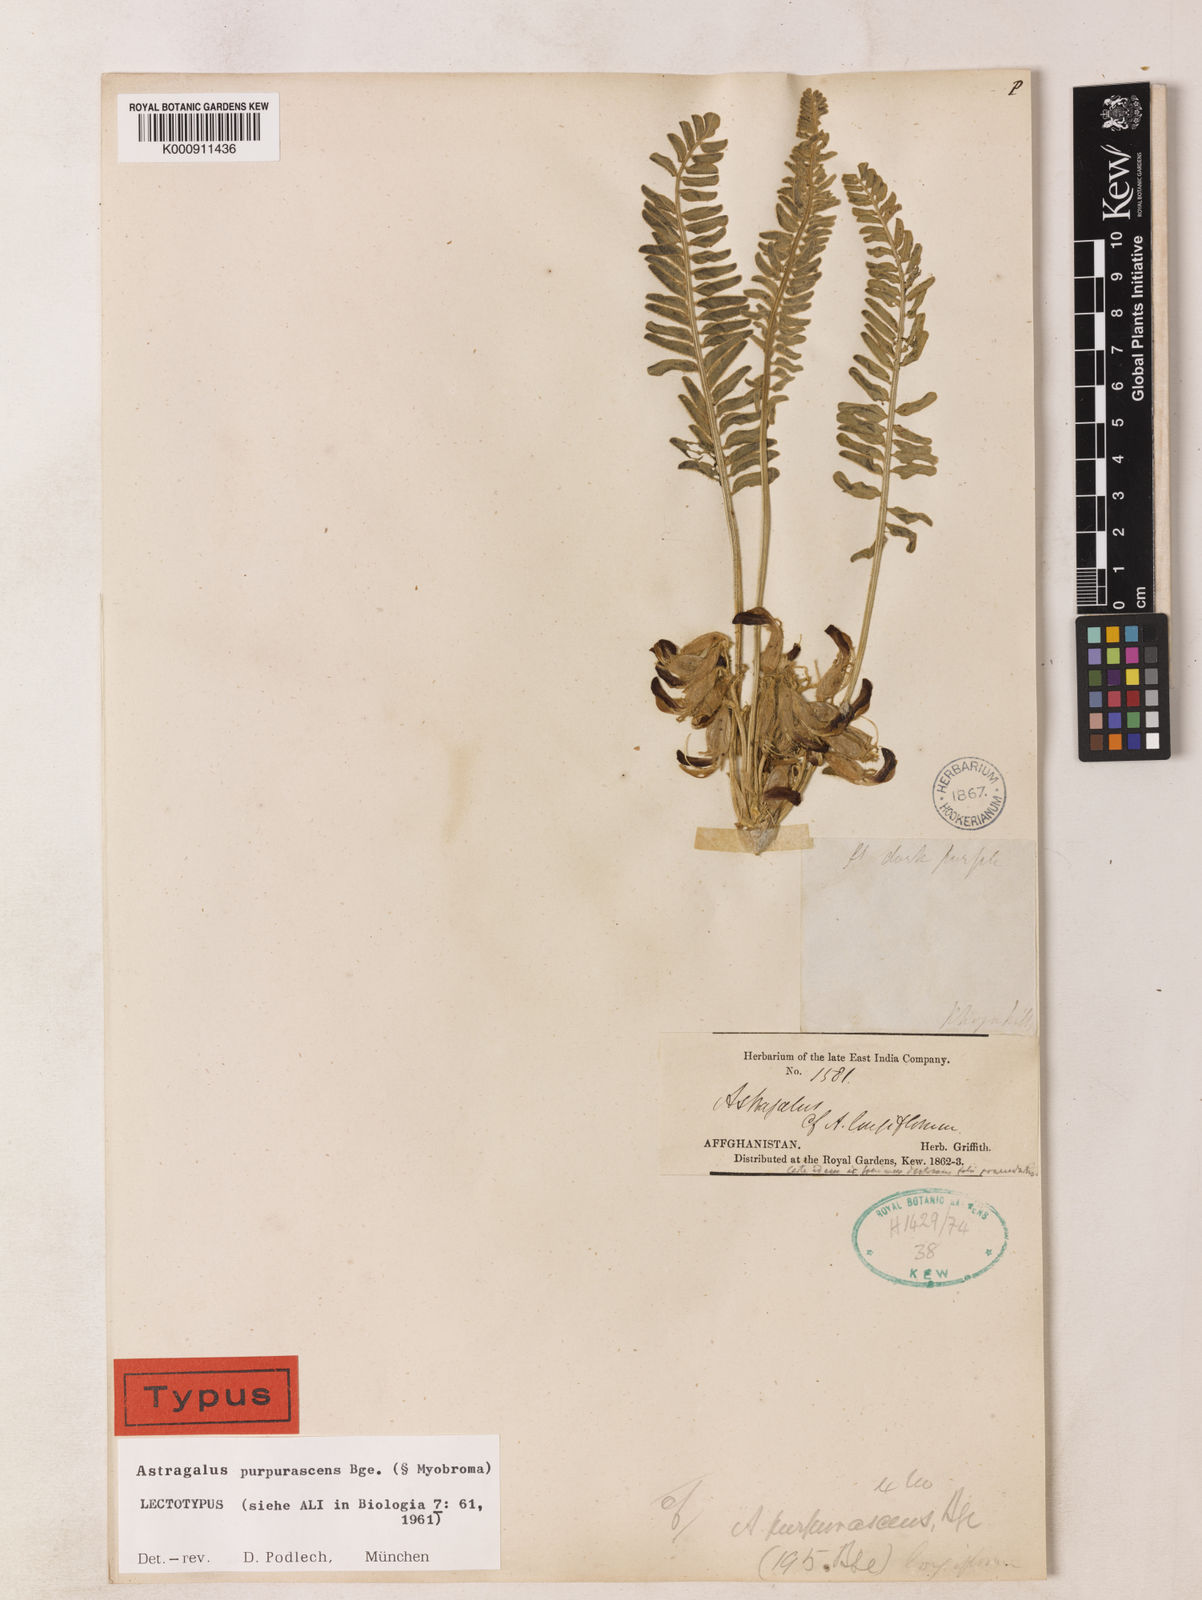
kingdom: Plantae
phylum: Tracheophyta
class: Magnoliopsida
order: Fabales
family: Fabaceae
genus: Astragalus
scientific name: Astragalus purpurascens
